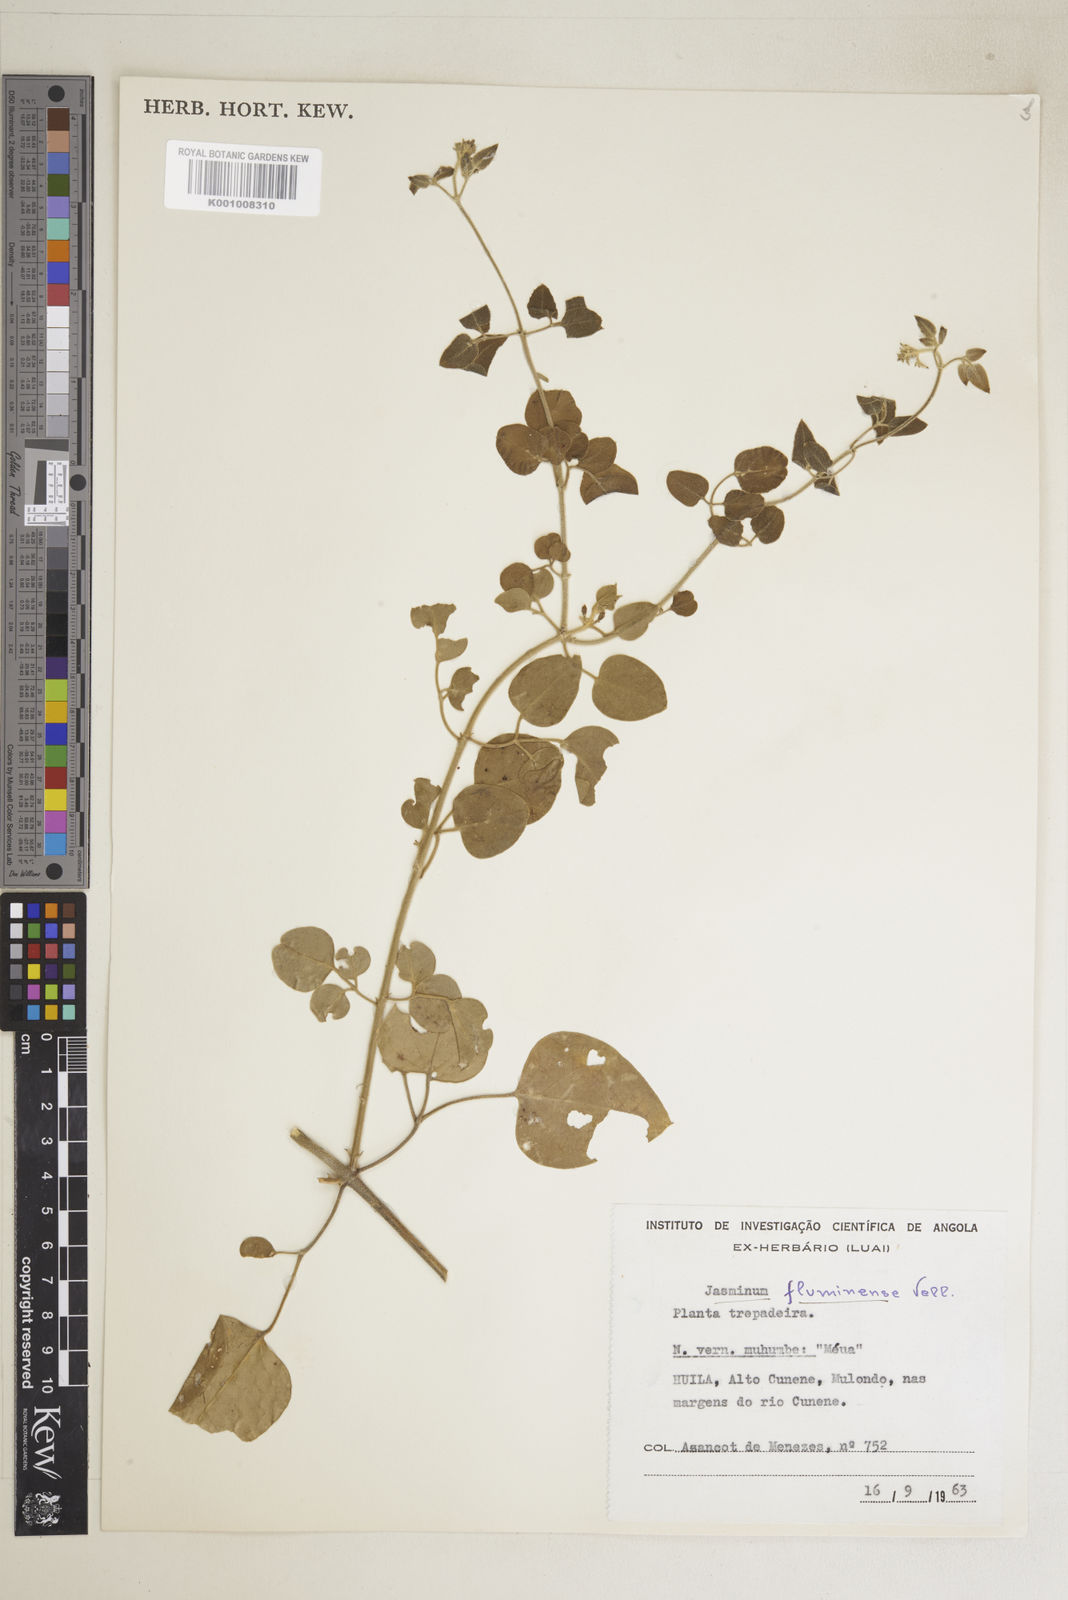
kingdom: Plantae
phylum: Tracheophyta
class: Magnoliopsida
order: Lamiales
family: Oleaceae
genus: Jasminum
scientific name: Jasminum fluminense
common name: Brazilian jasmine
